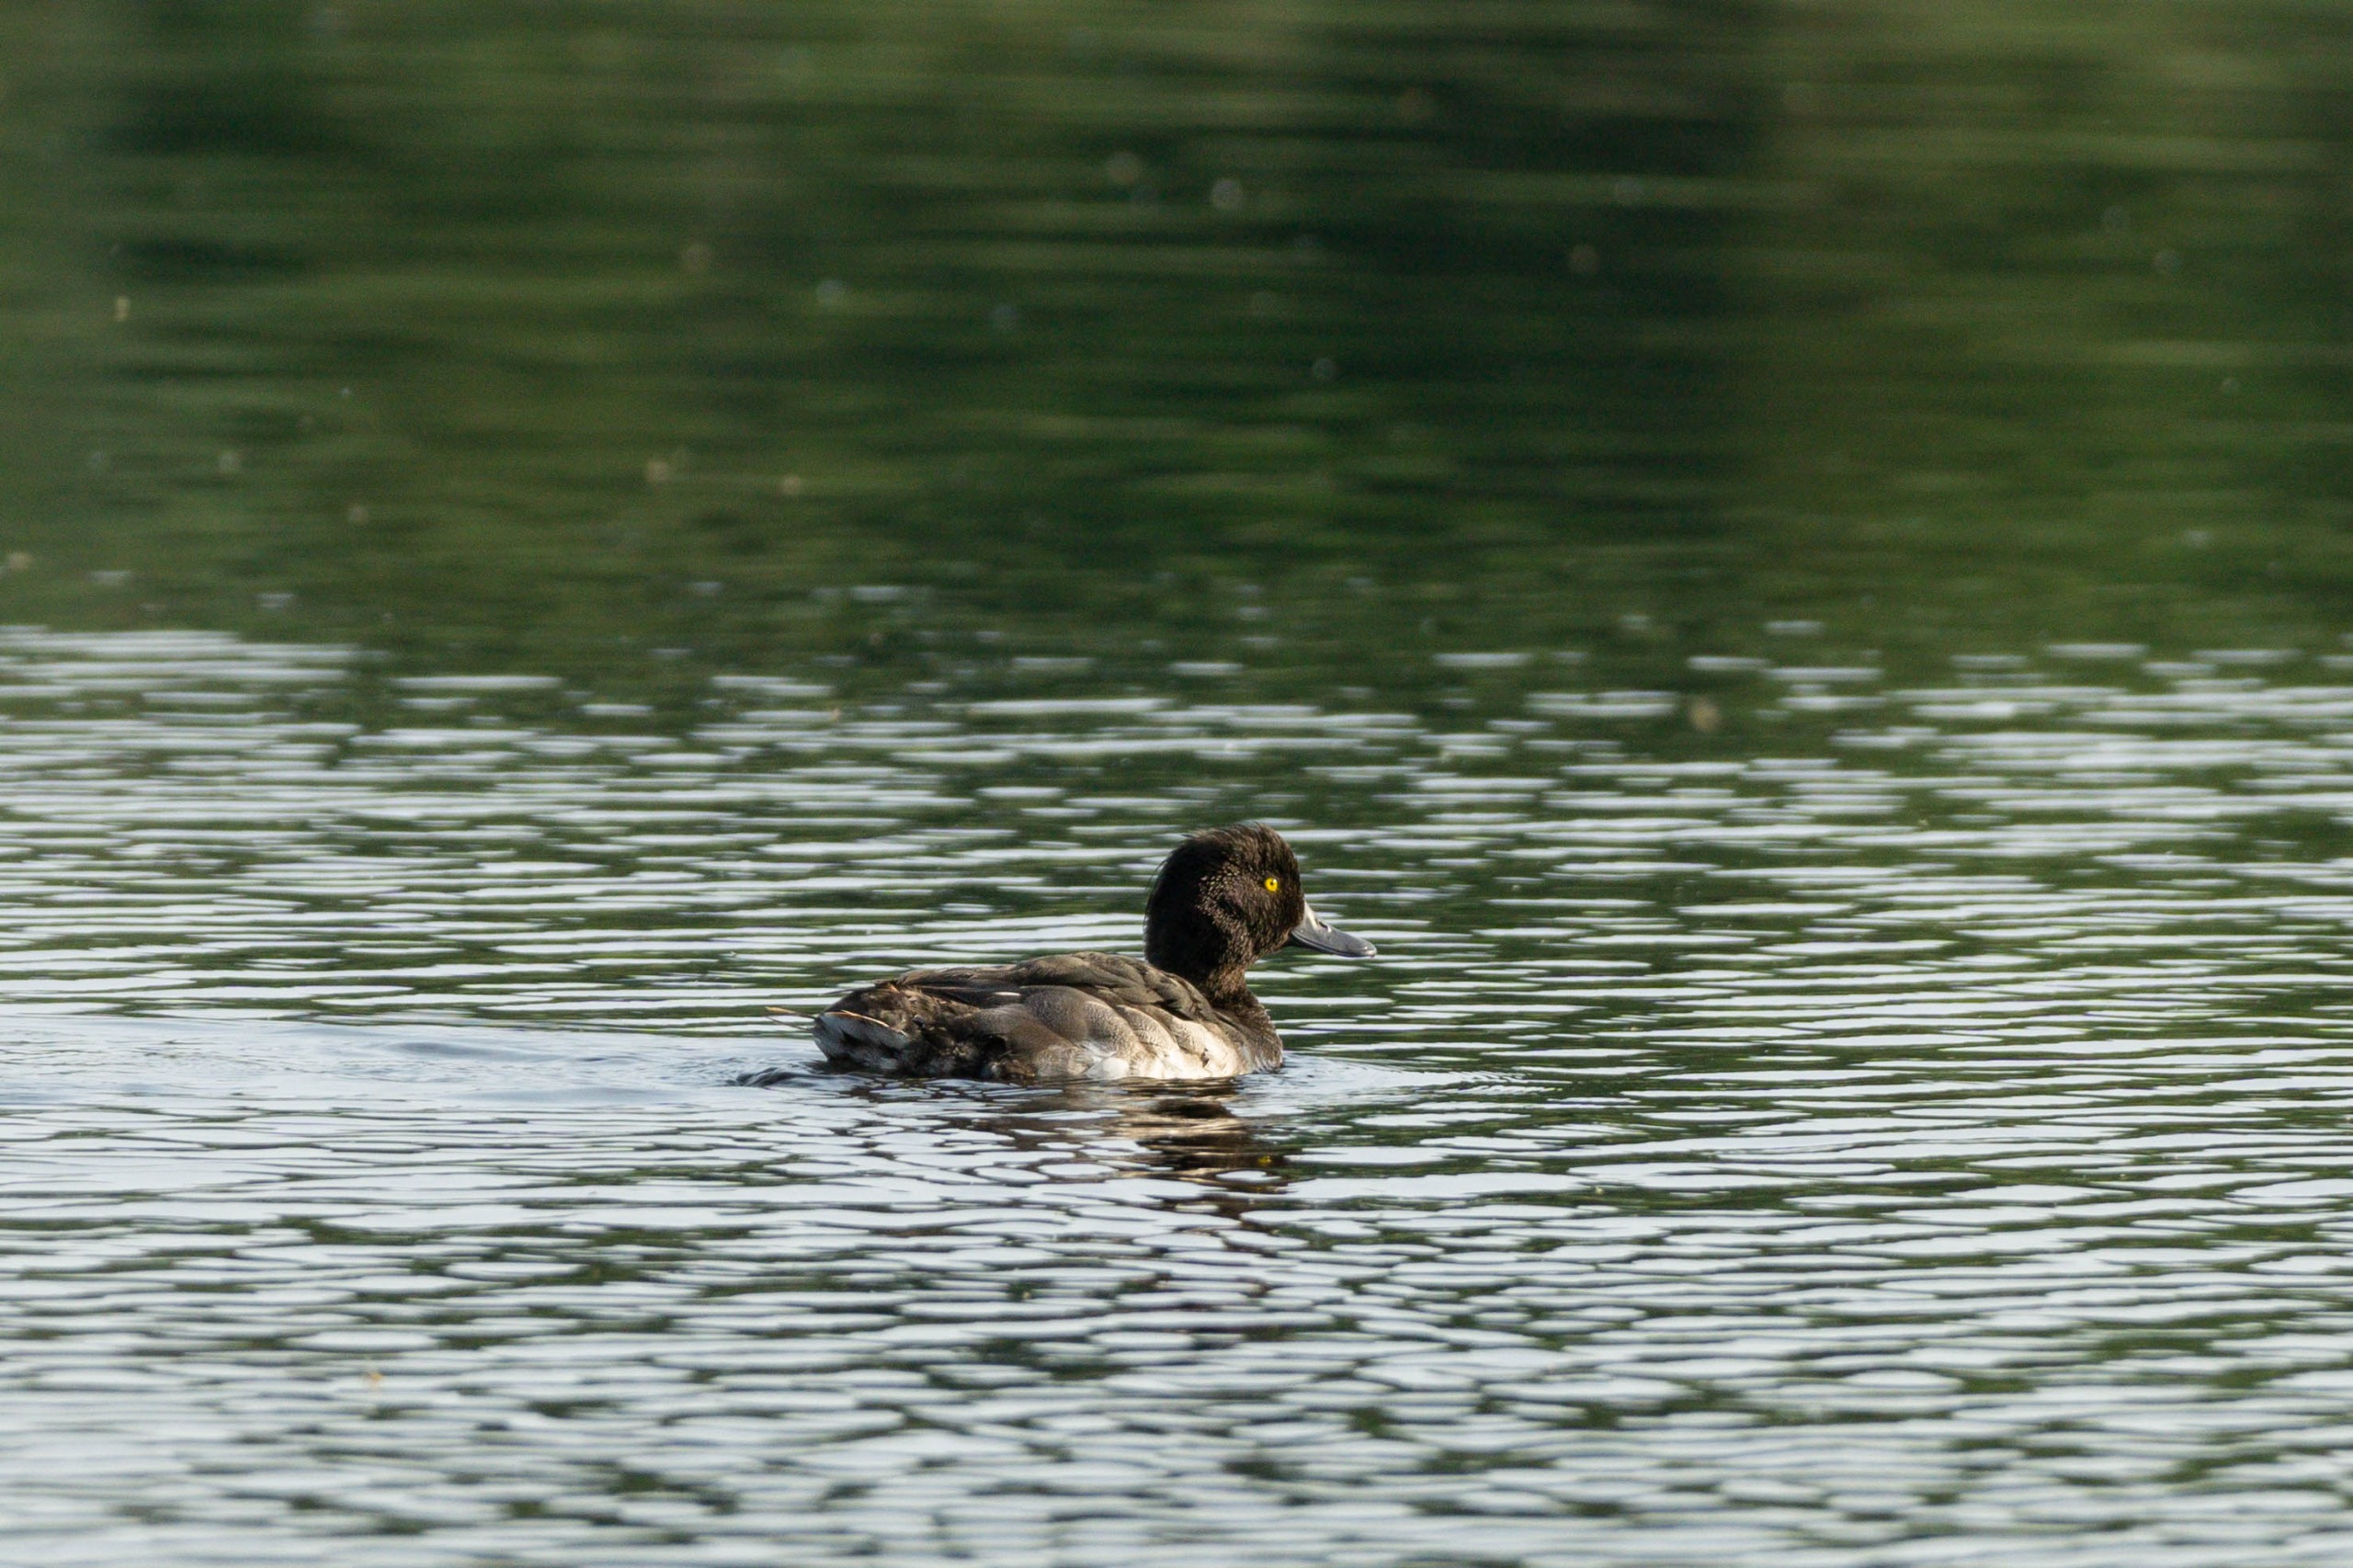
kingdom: Animalia
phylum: Chordata
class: Aves
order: Anseriformes
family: Anatidae
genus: Aythya
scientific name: Aythya fuligula
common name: Troldand
